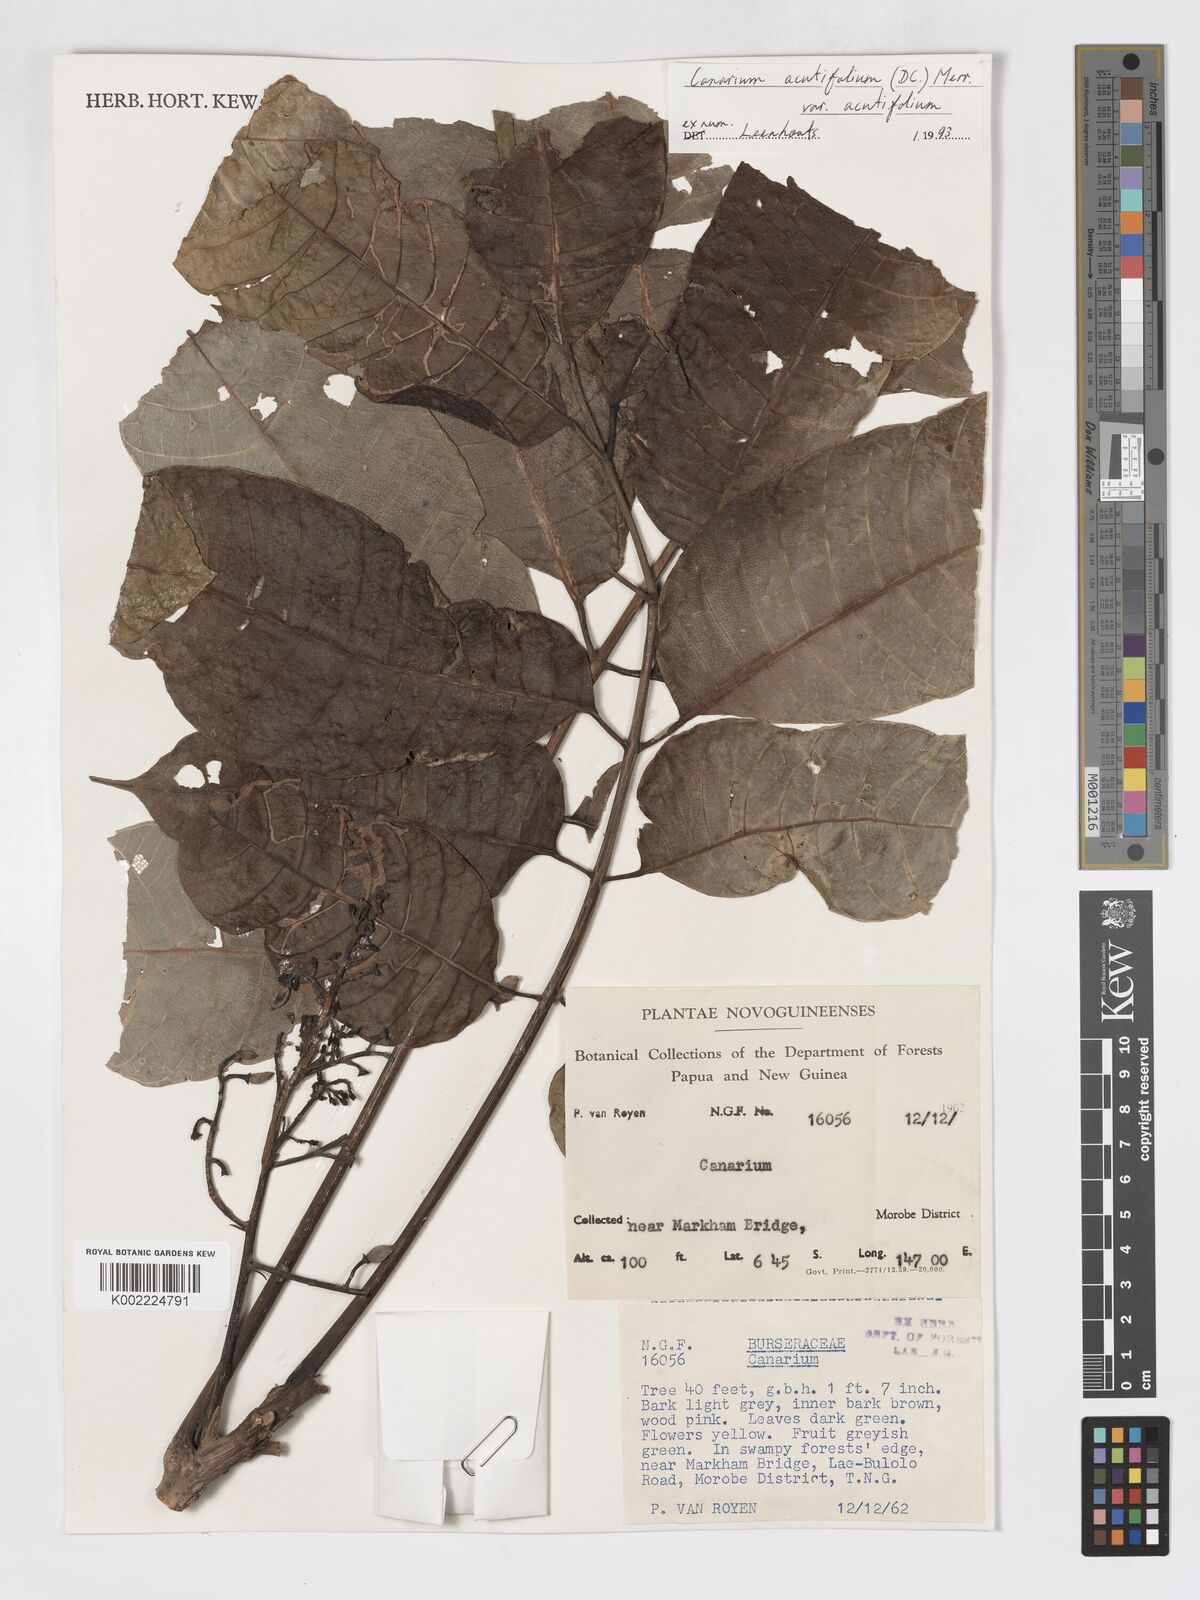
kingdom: Plantae
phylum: Tracheophyta
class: Magnoliopsida
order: Sapindales
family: Burseraceae
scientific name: Burseraceae
